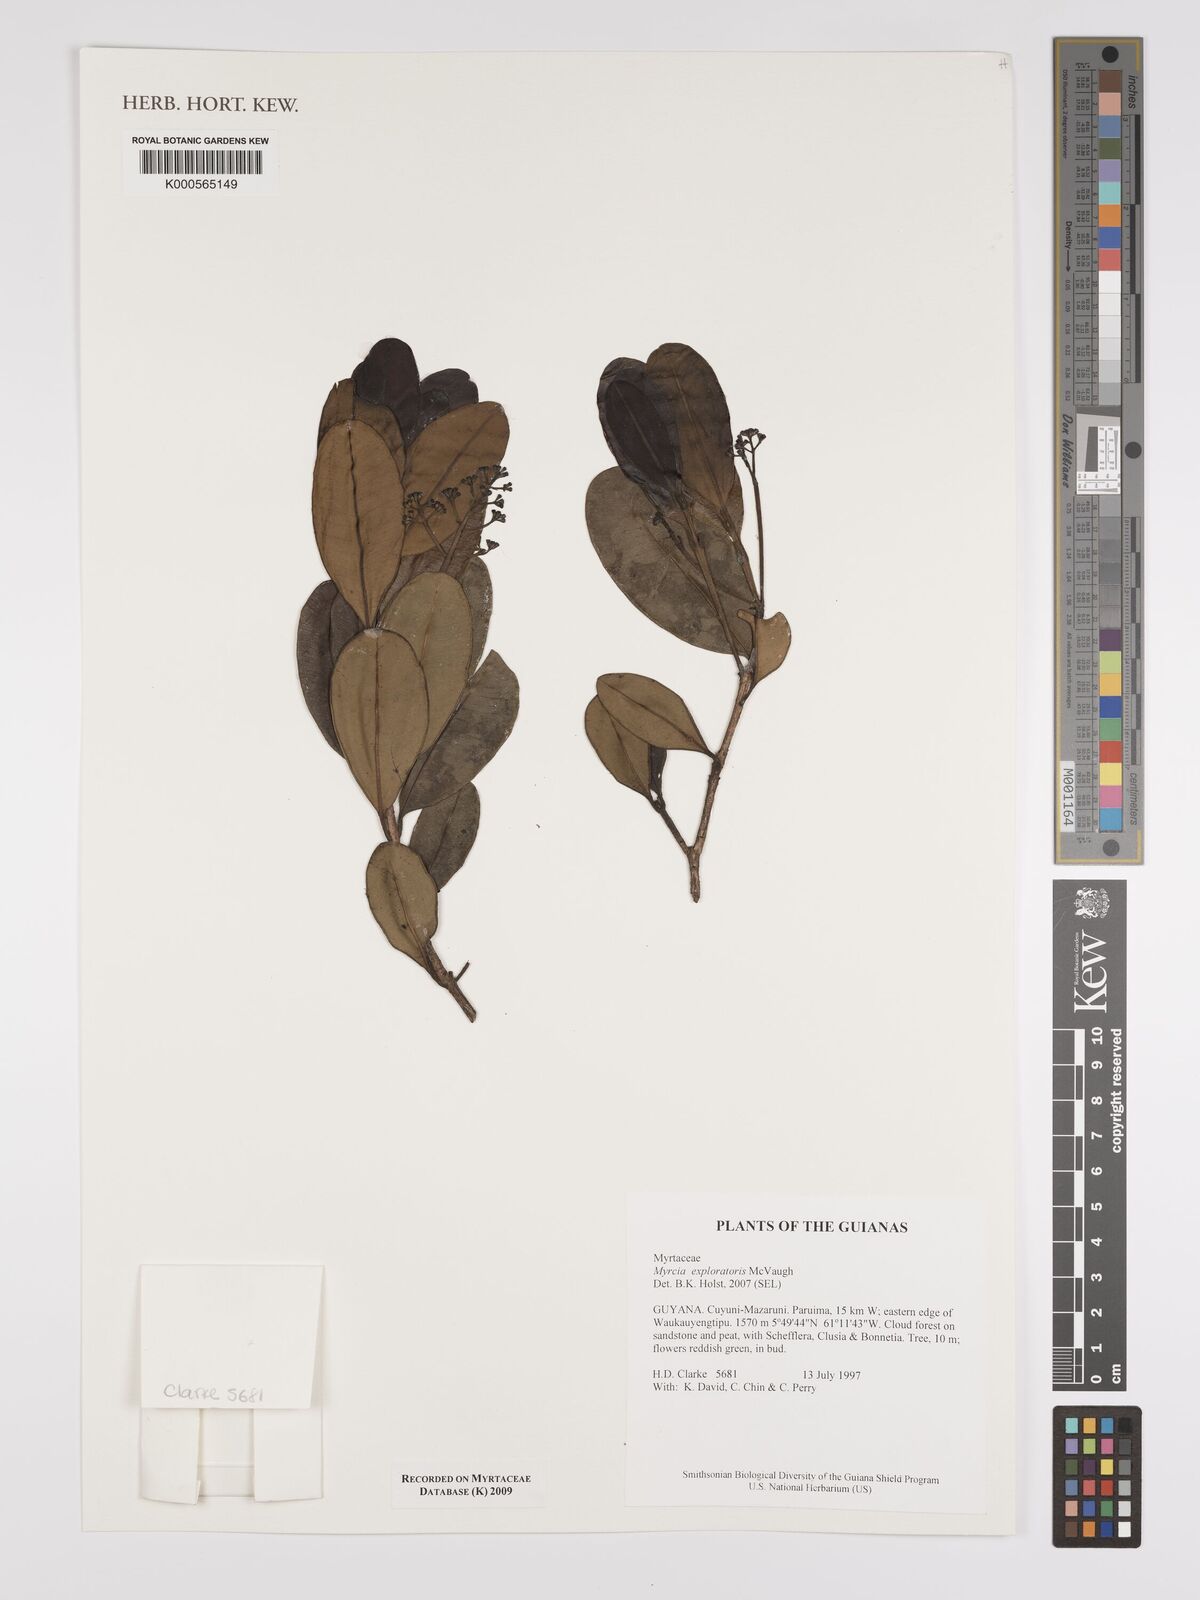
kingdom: Plantae
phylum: Tracheophyta
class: Magnoliopsida
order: Myrtales
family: Myrtaceae
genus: Myrcia
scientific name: Myrcia exploratoris
